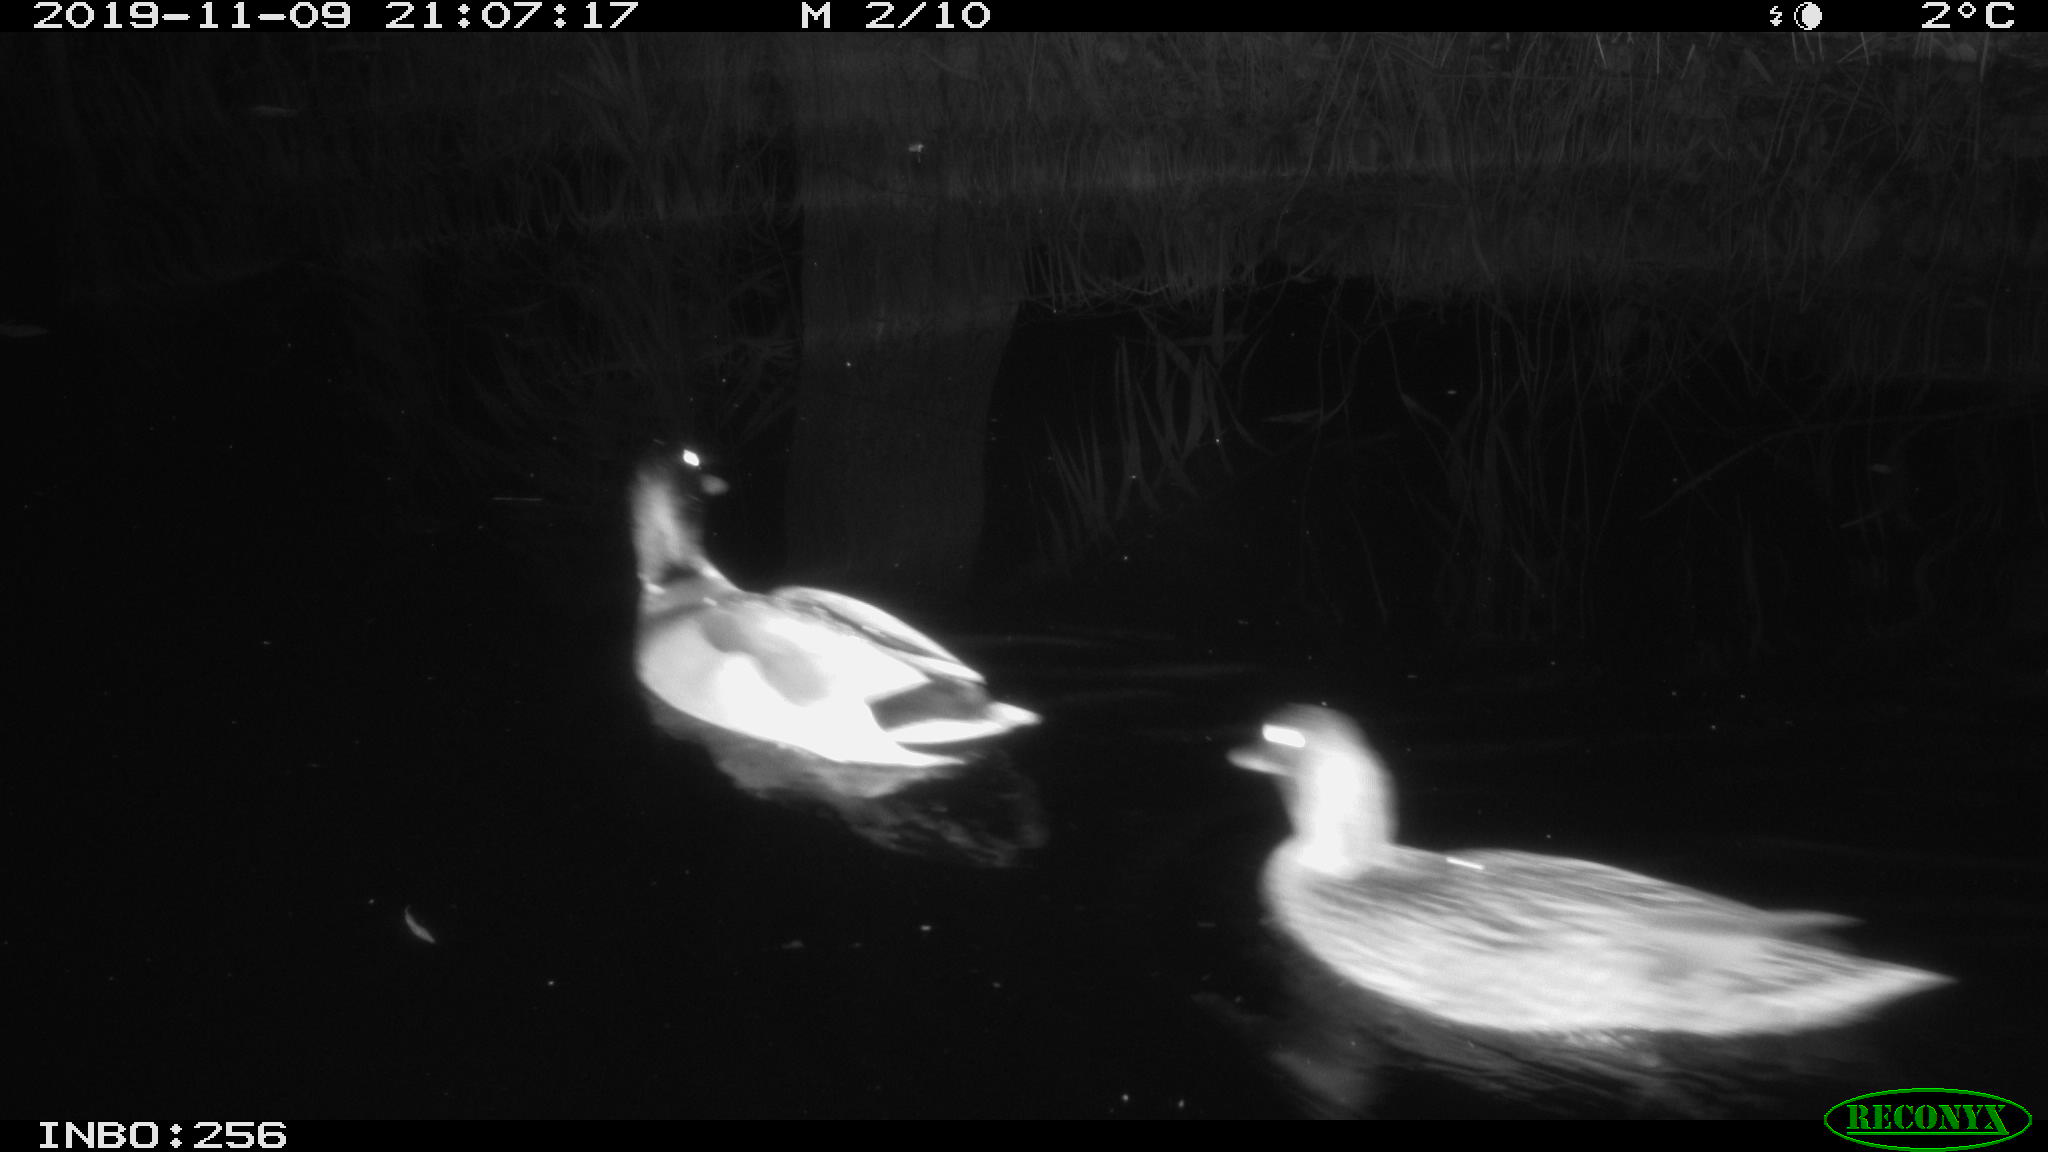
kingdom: Animalia
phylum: Chordata
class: Aves
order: Anseriformes
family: Anatidae
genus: Anas
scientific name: Anas platyrhynchos
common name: Mallard
